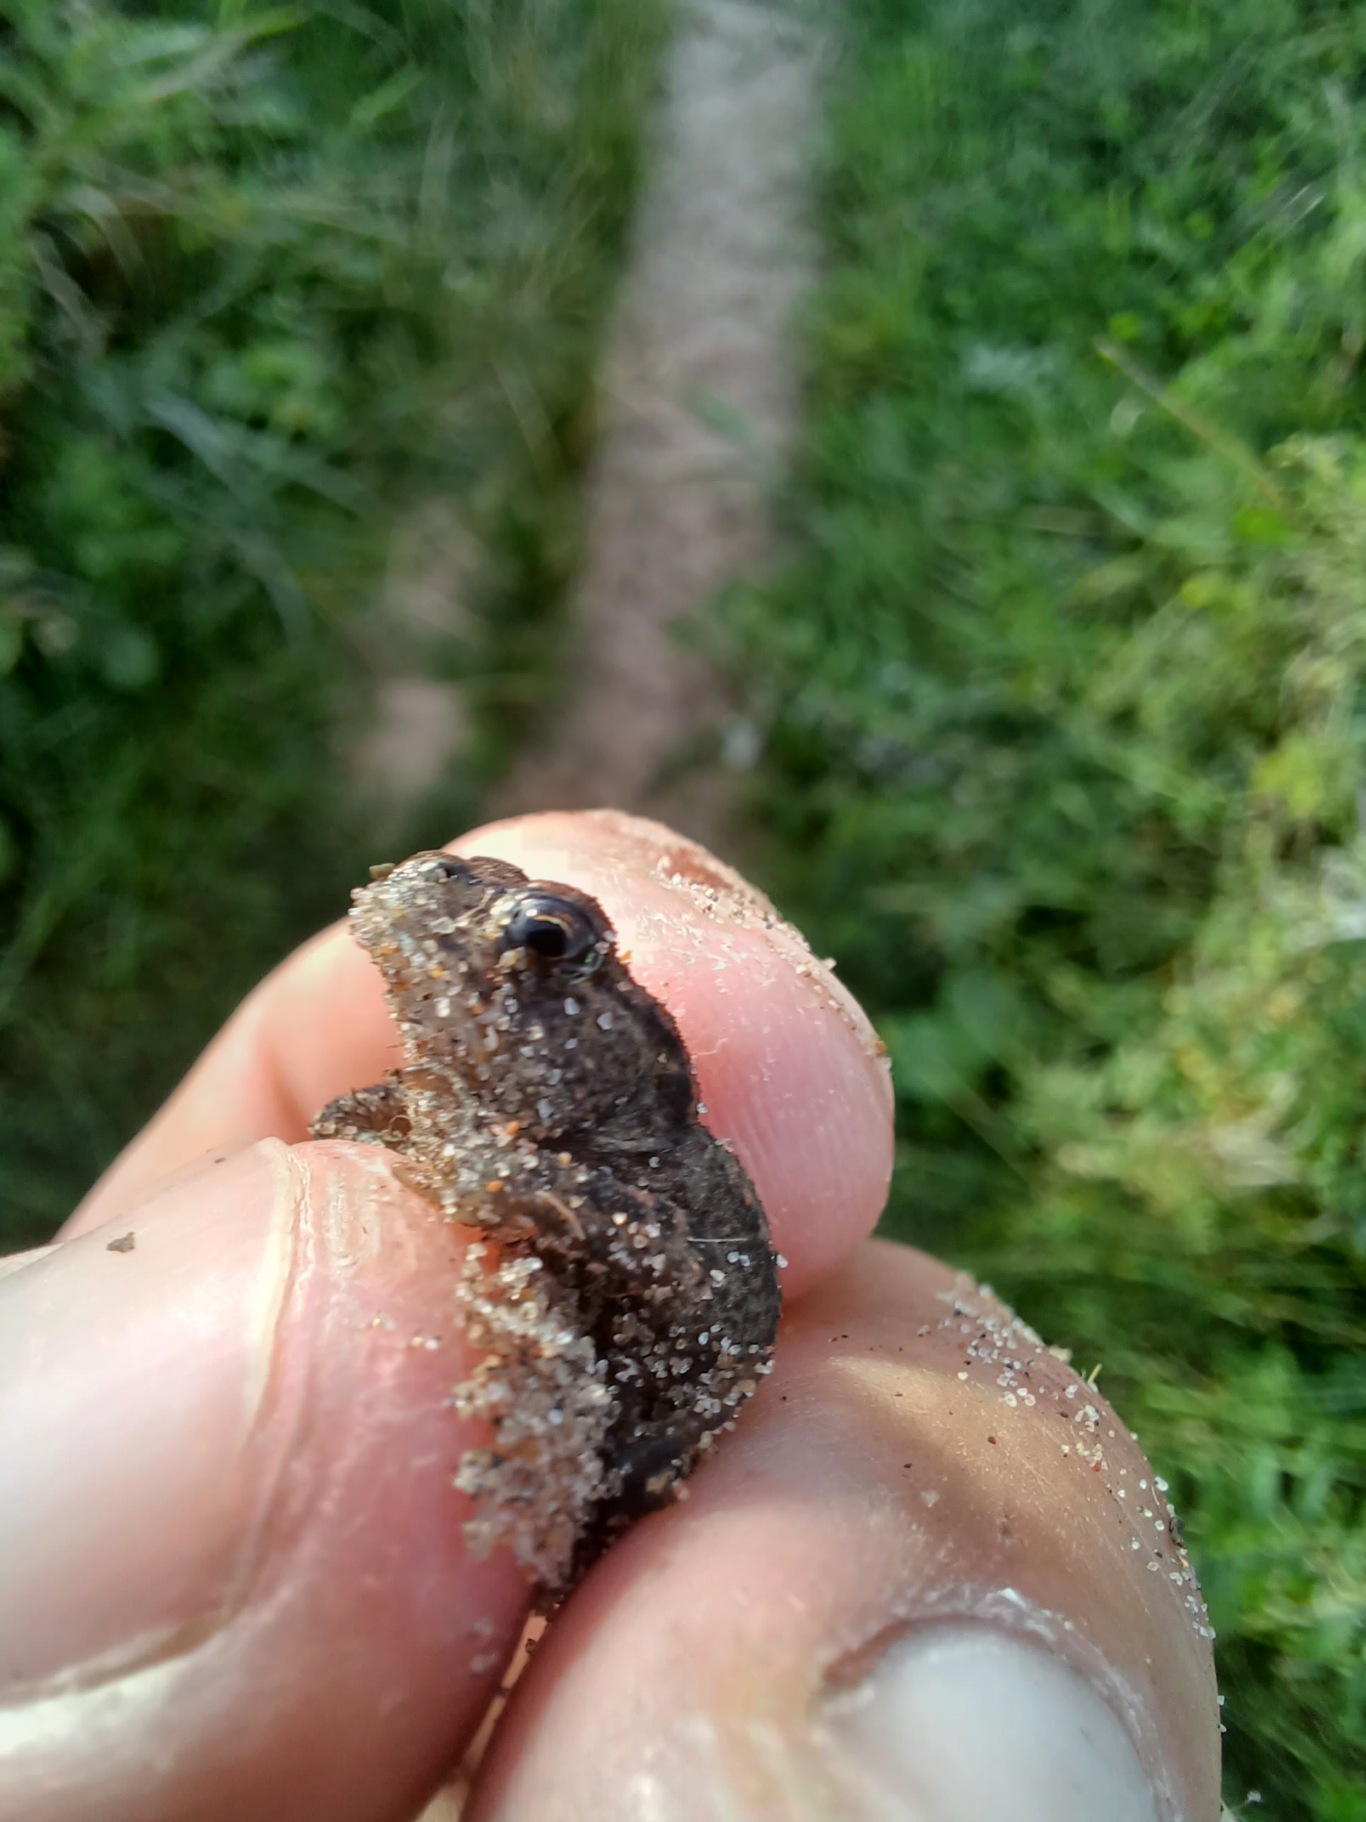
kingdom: Animalia
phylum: Chordata
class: Amphibia
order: Anura
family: Bufonidae
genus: Bufo
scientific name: Bufo bufo
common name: Skrubtudse
